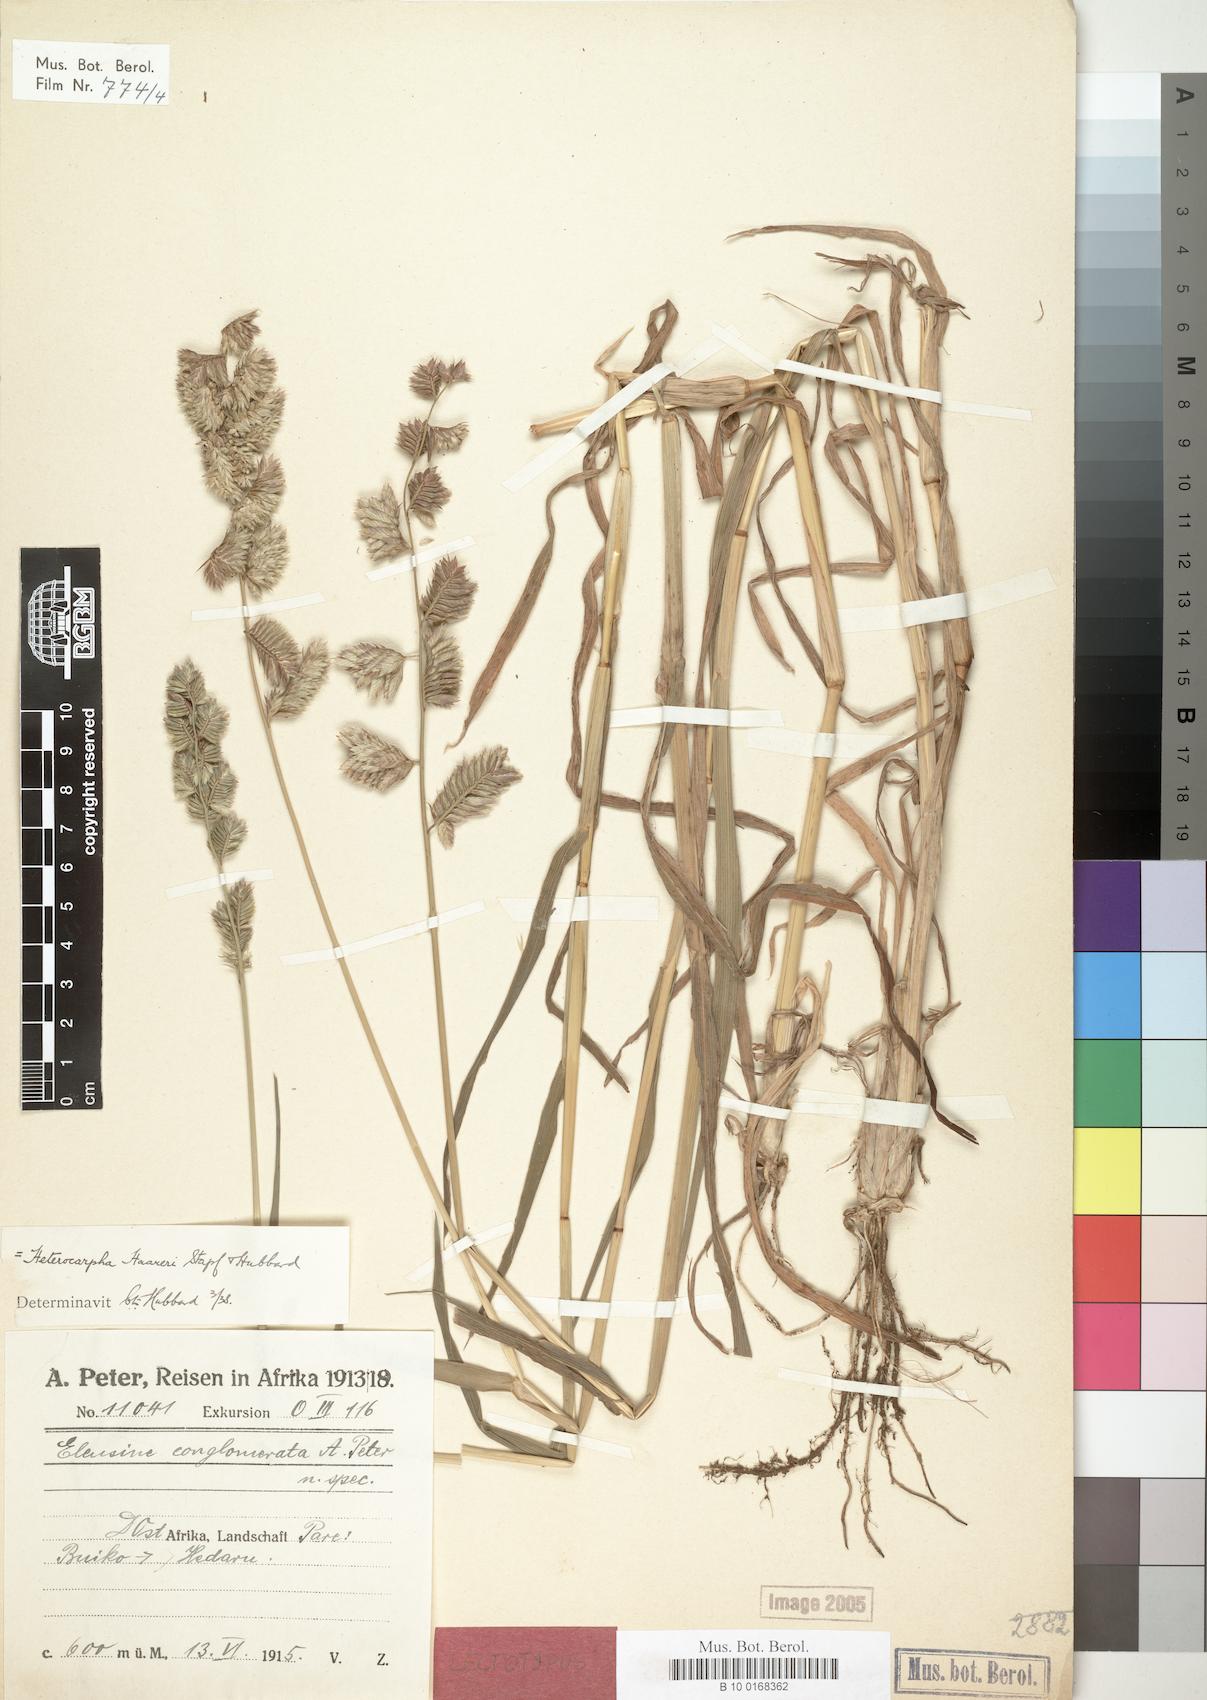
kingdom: Plantae
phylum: Tracheophyta
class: Liliopsida
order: Poales
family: Poaceae
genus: Dinebra
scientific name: Dinebra haareri
